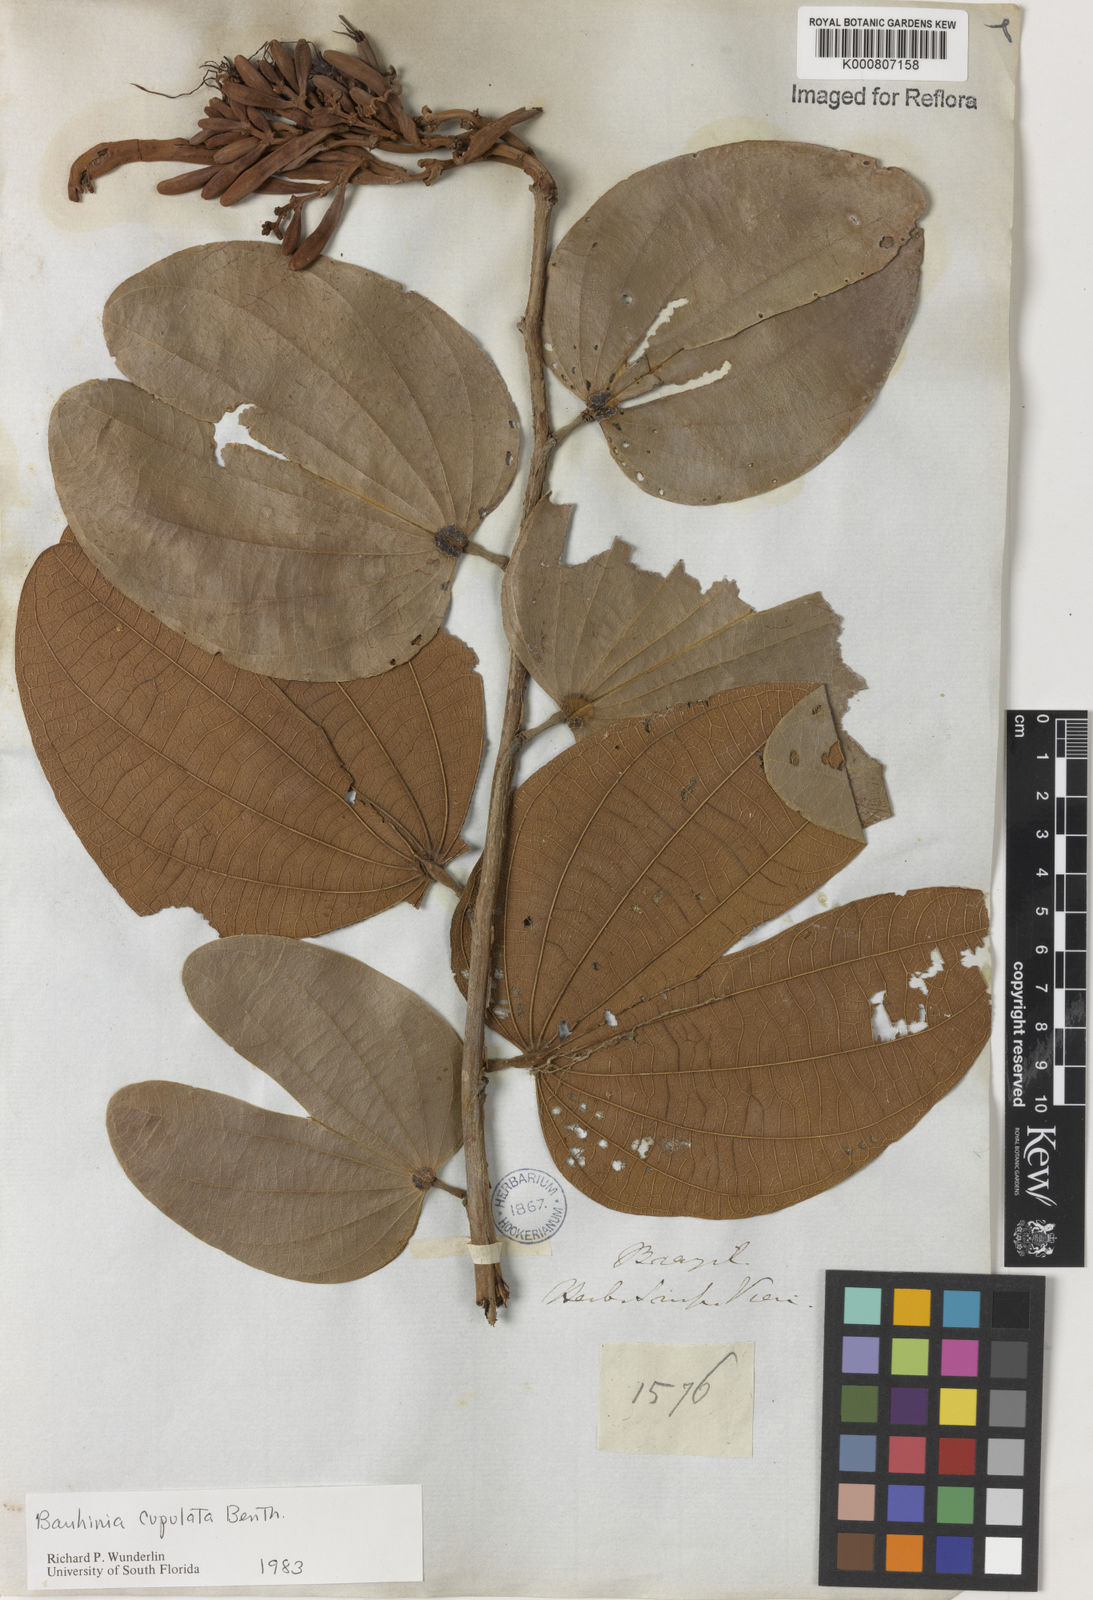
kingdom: Plantae
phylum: Tracheophyta
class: Magnoliopsida
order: Fabales
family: Fabaceae
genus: Bauhinia
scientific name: Bauhinia cupulata
